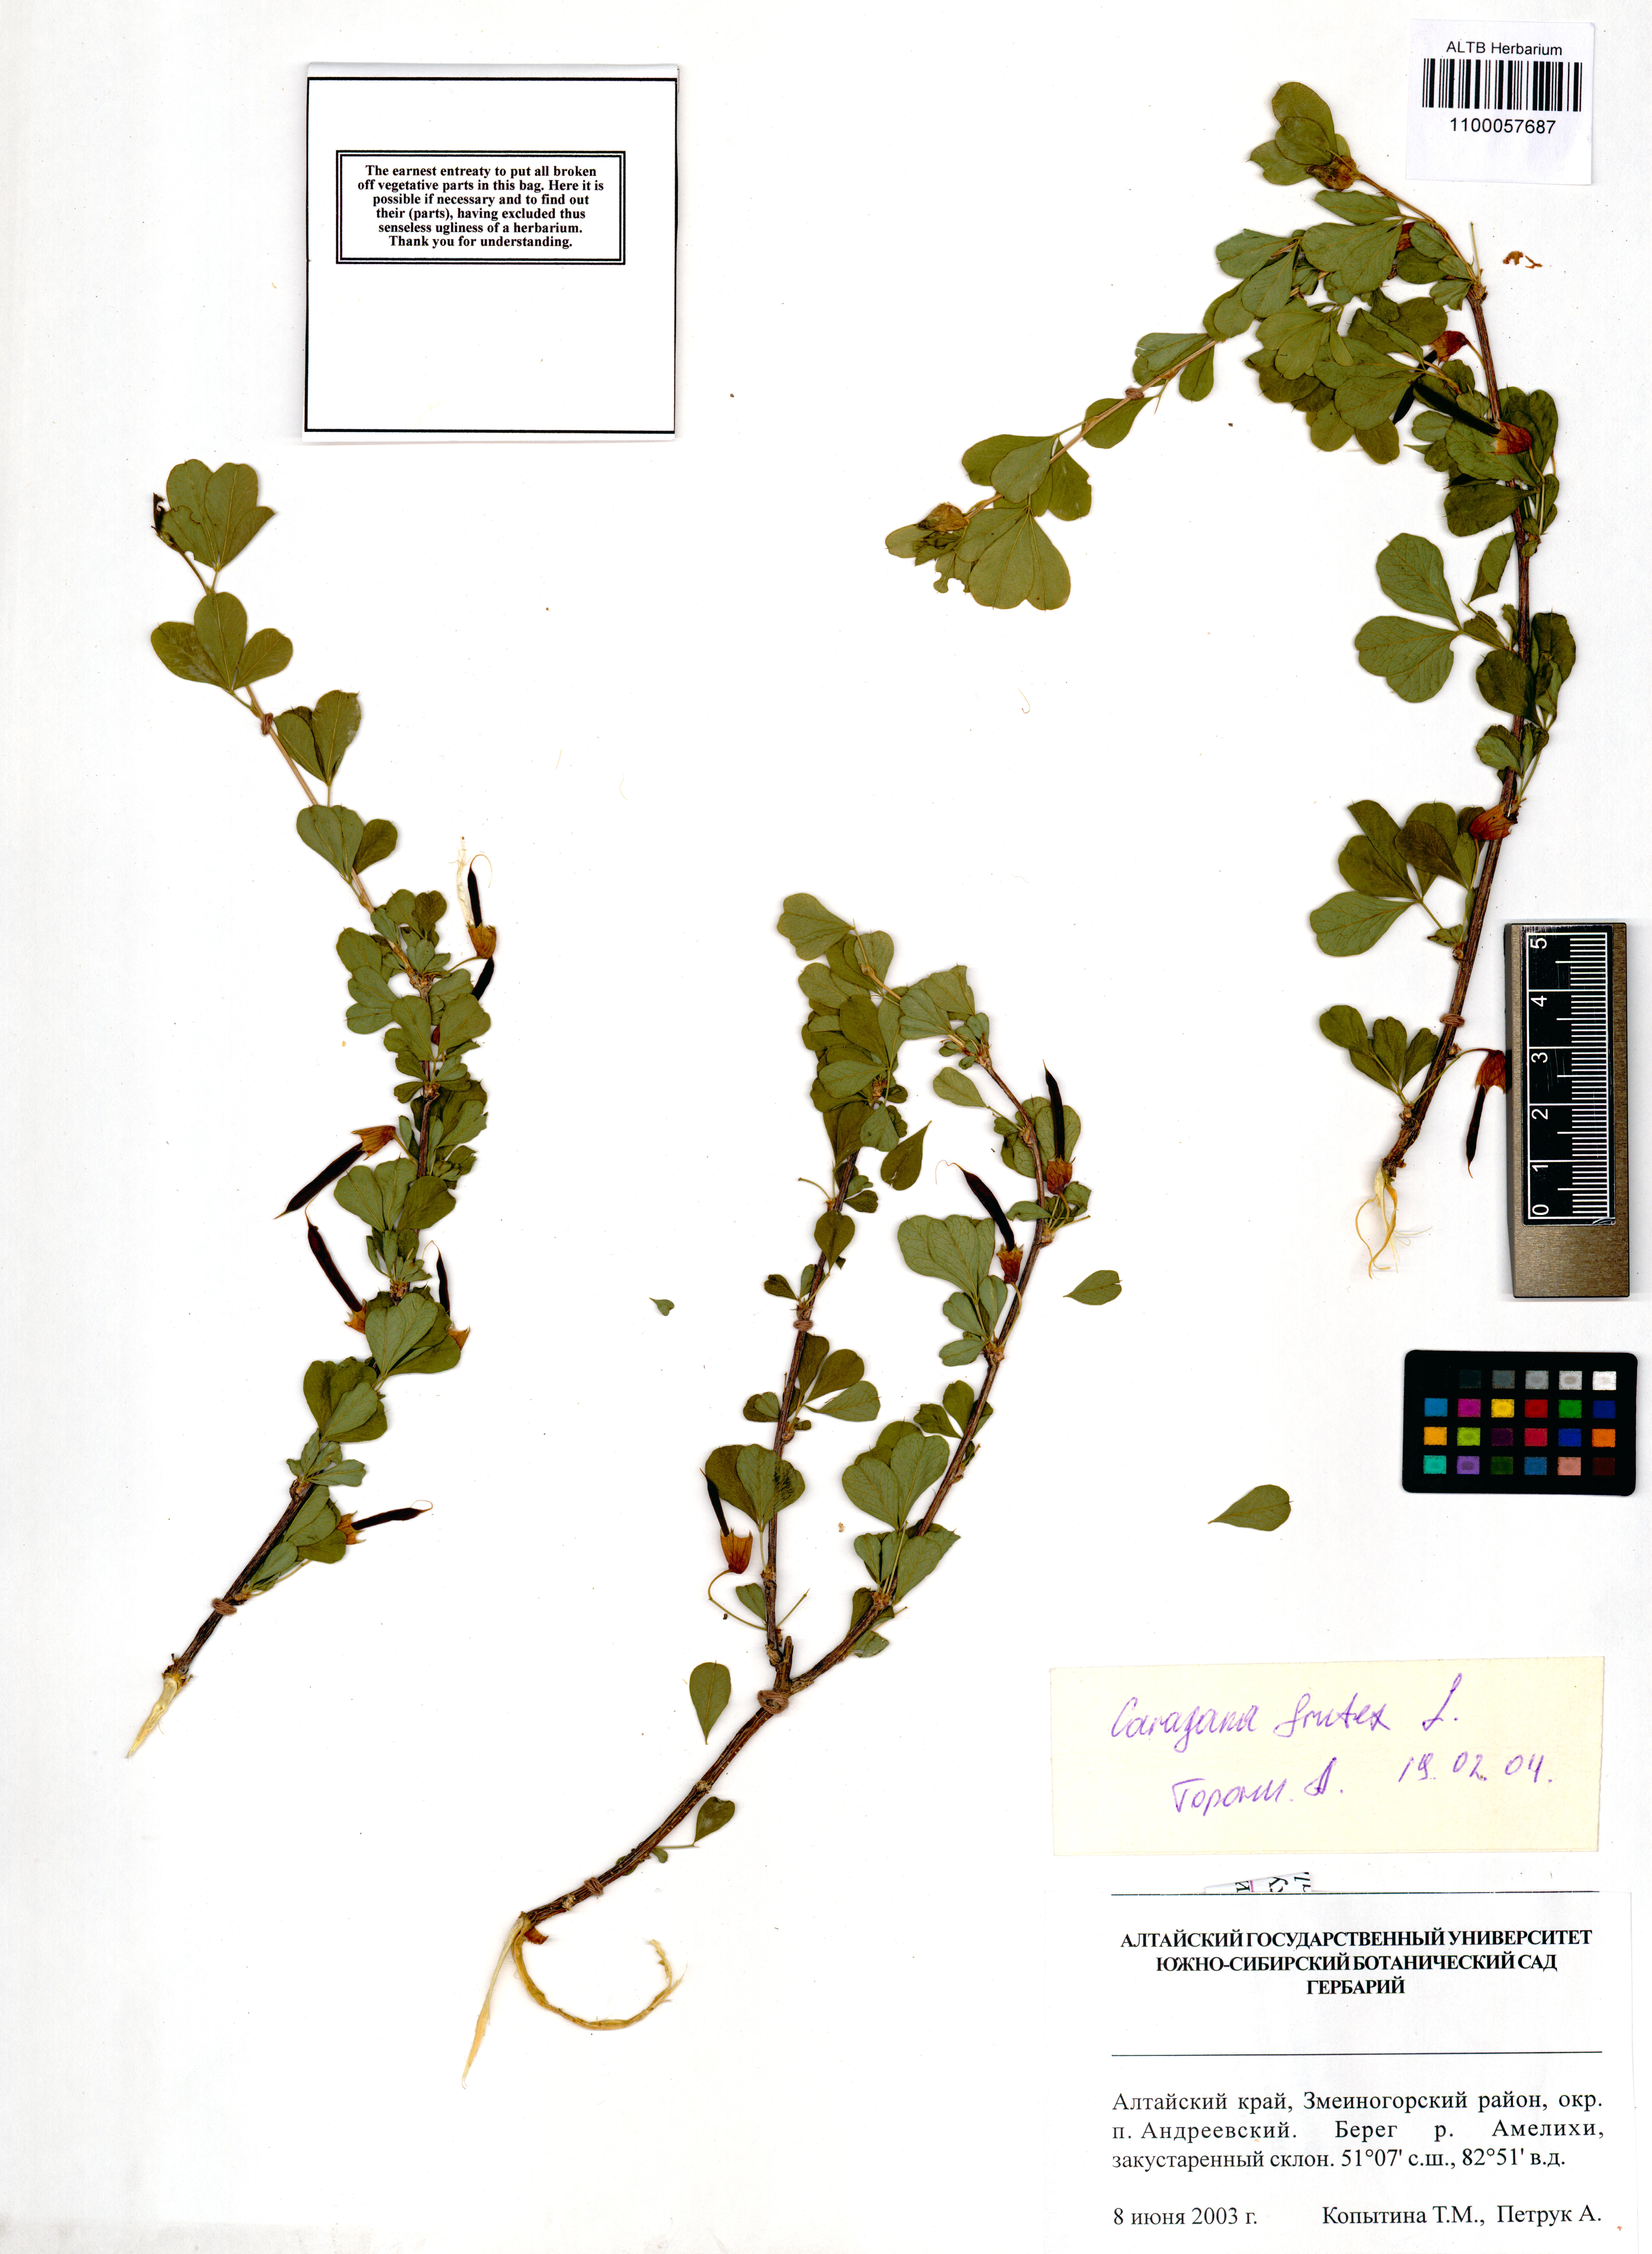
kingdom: Plantae
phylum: Tracheophyta
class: Magnoliopsida
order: Fabales
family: Fabaceae
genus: Caragana
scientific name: Caragana frutex
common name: Russian peashrub
